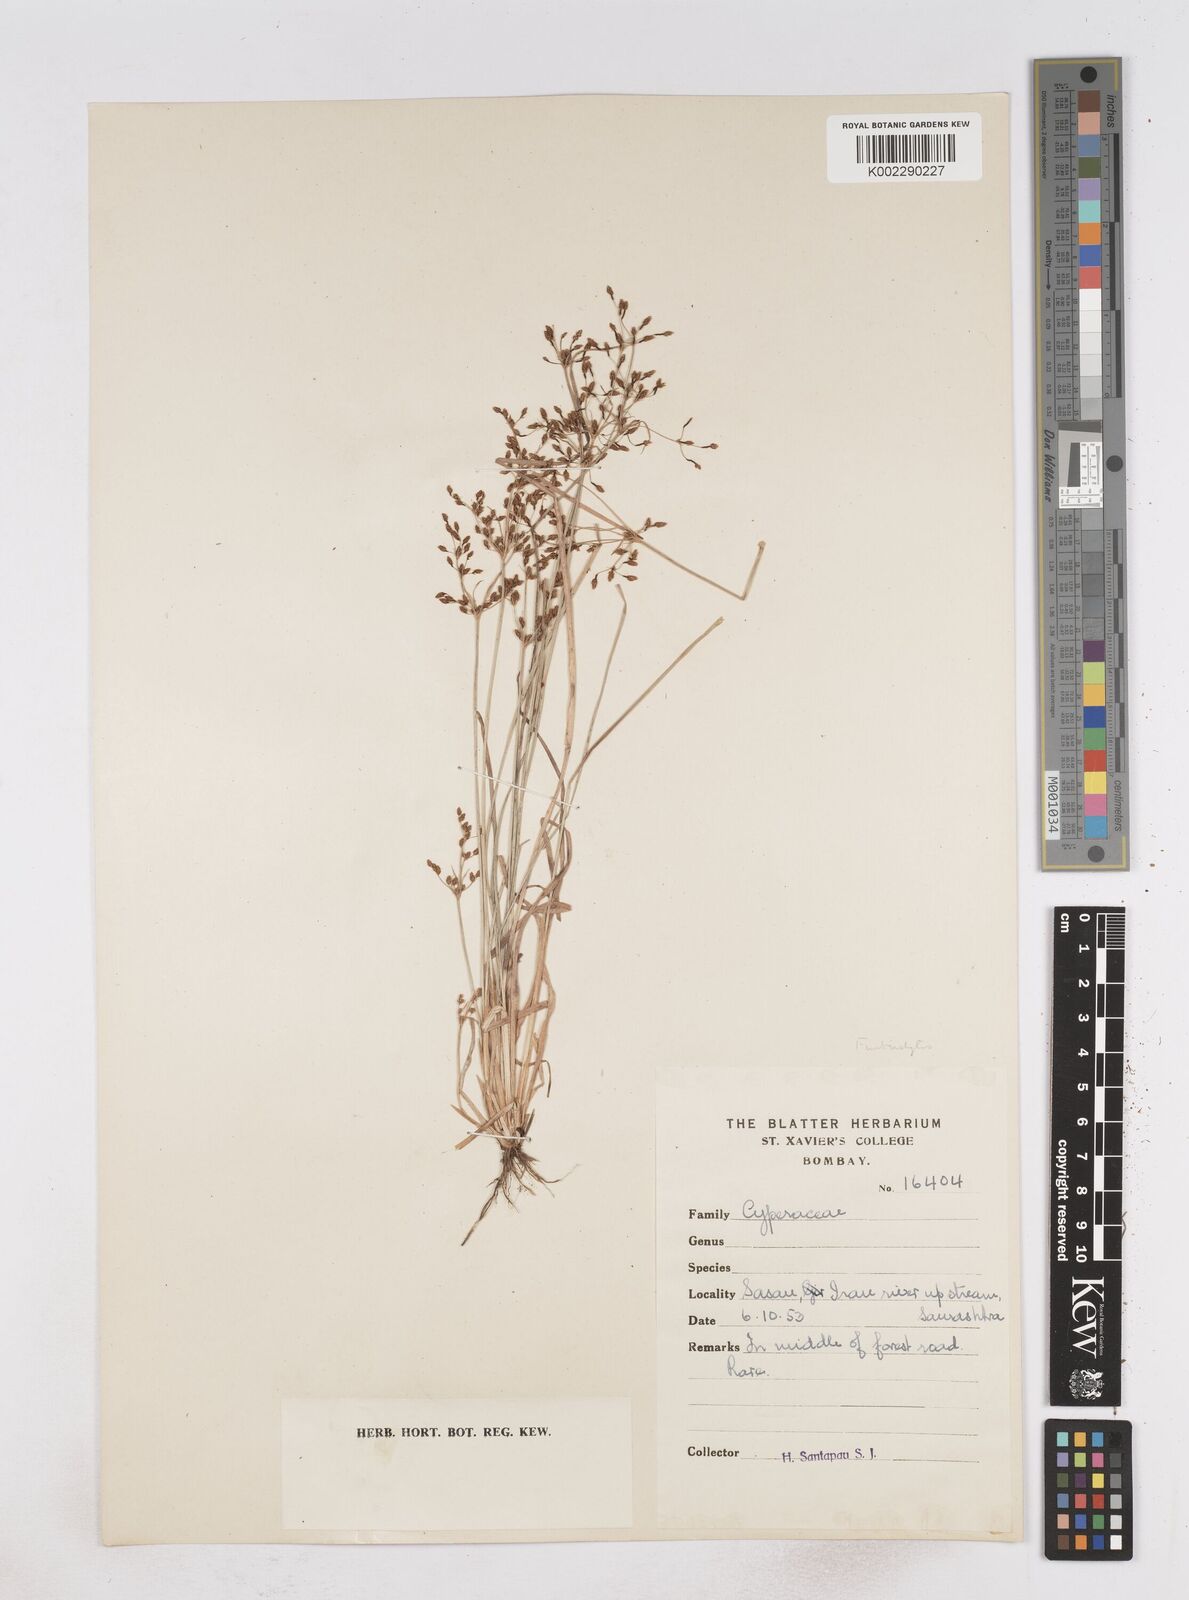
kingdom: Plantae
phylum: Tracheophyta
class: Liliopsida
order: Poales
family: Cyperaceae
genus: Fimbristylis
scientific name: Fimbristylis
